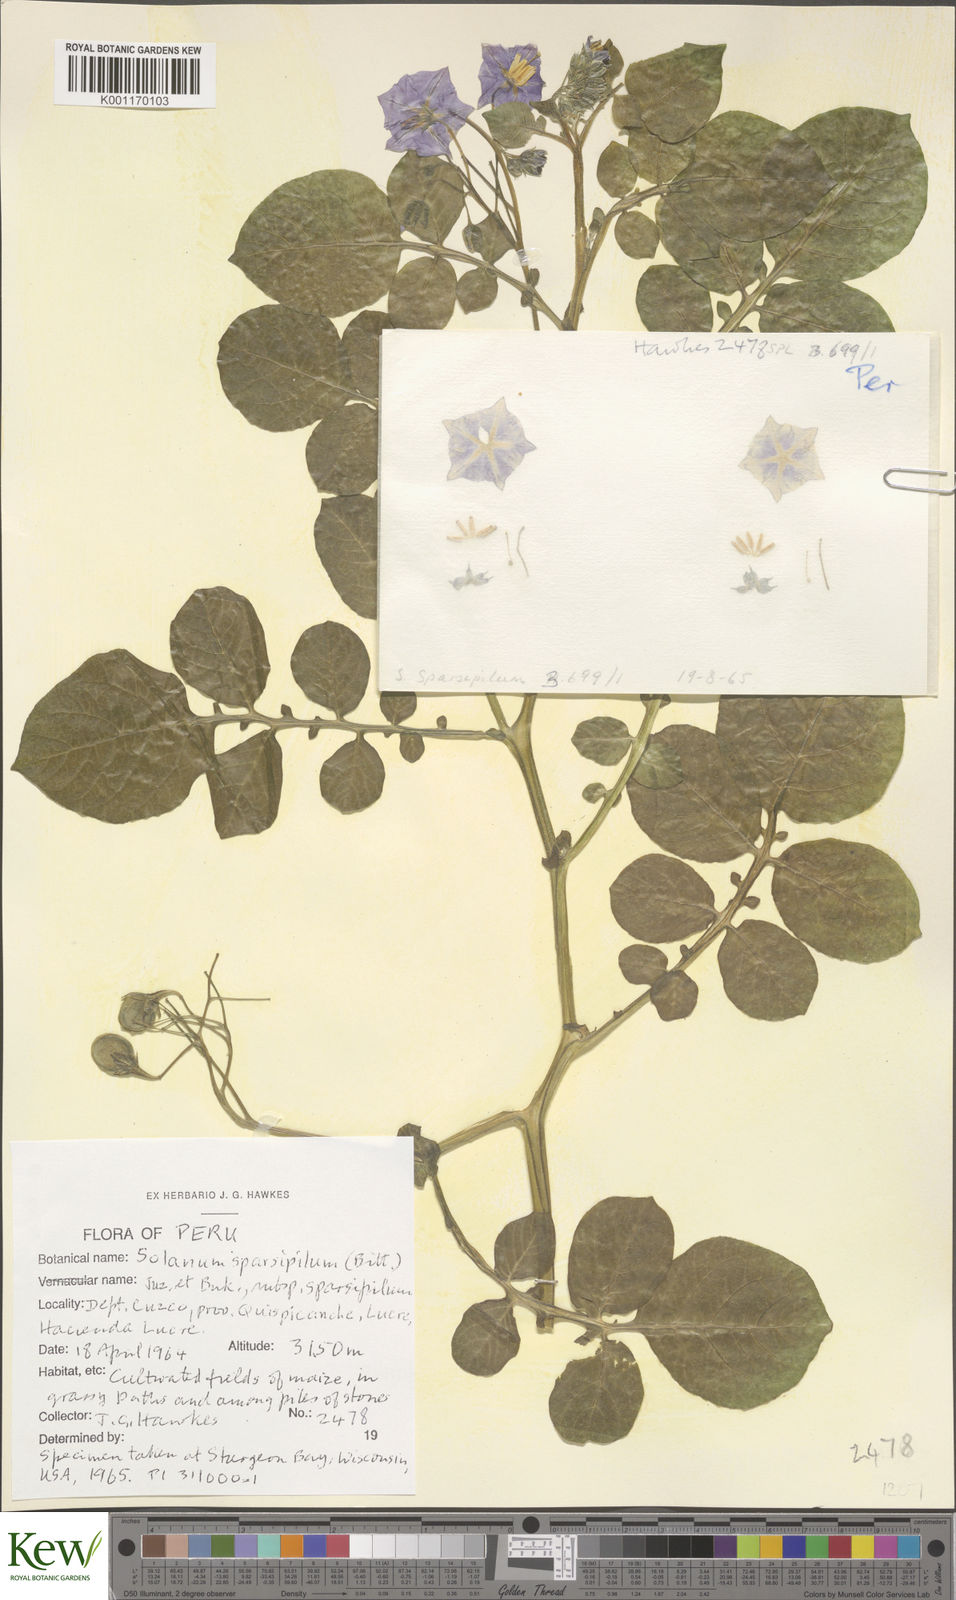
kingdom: Plantae
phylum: Tracheophyta
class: Magnoliopsida
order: Solanales
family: Solanaceae
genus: Solanum
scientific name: Solanum brevicaule
